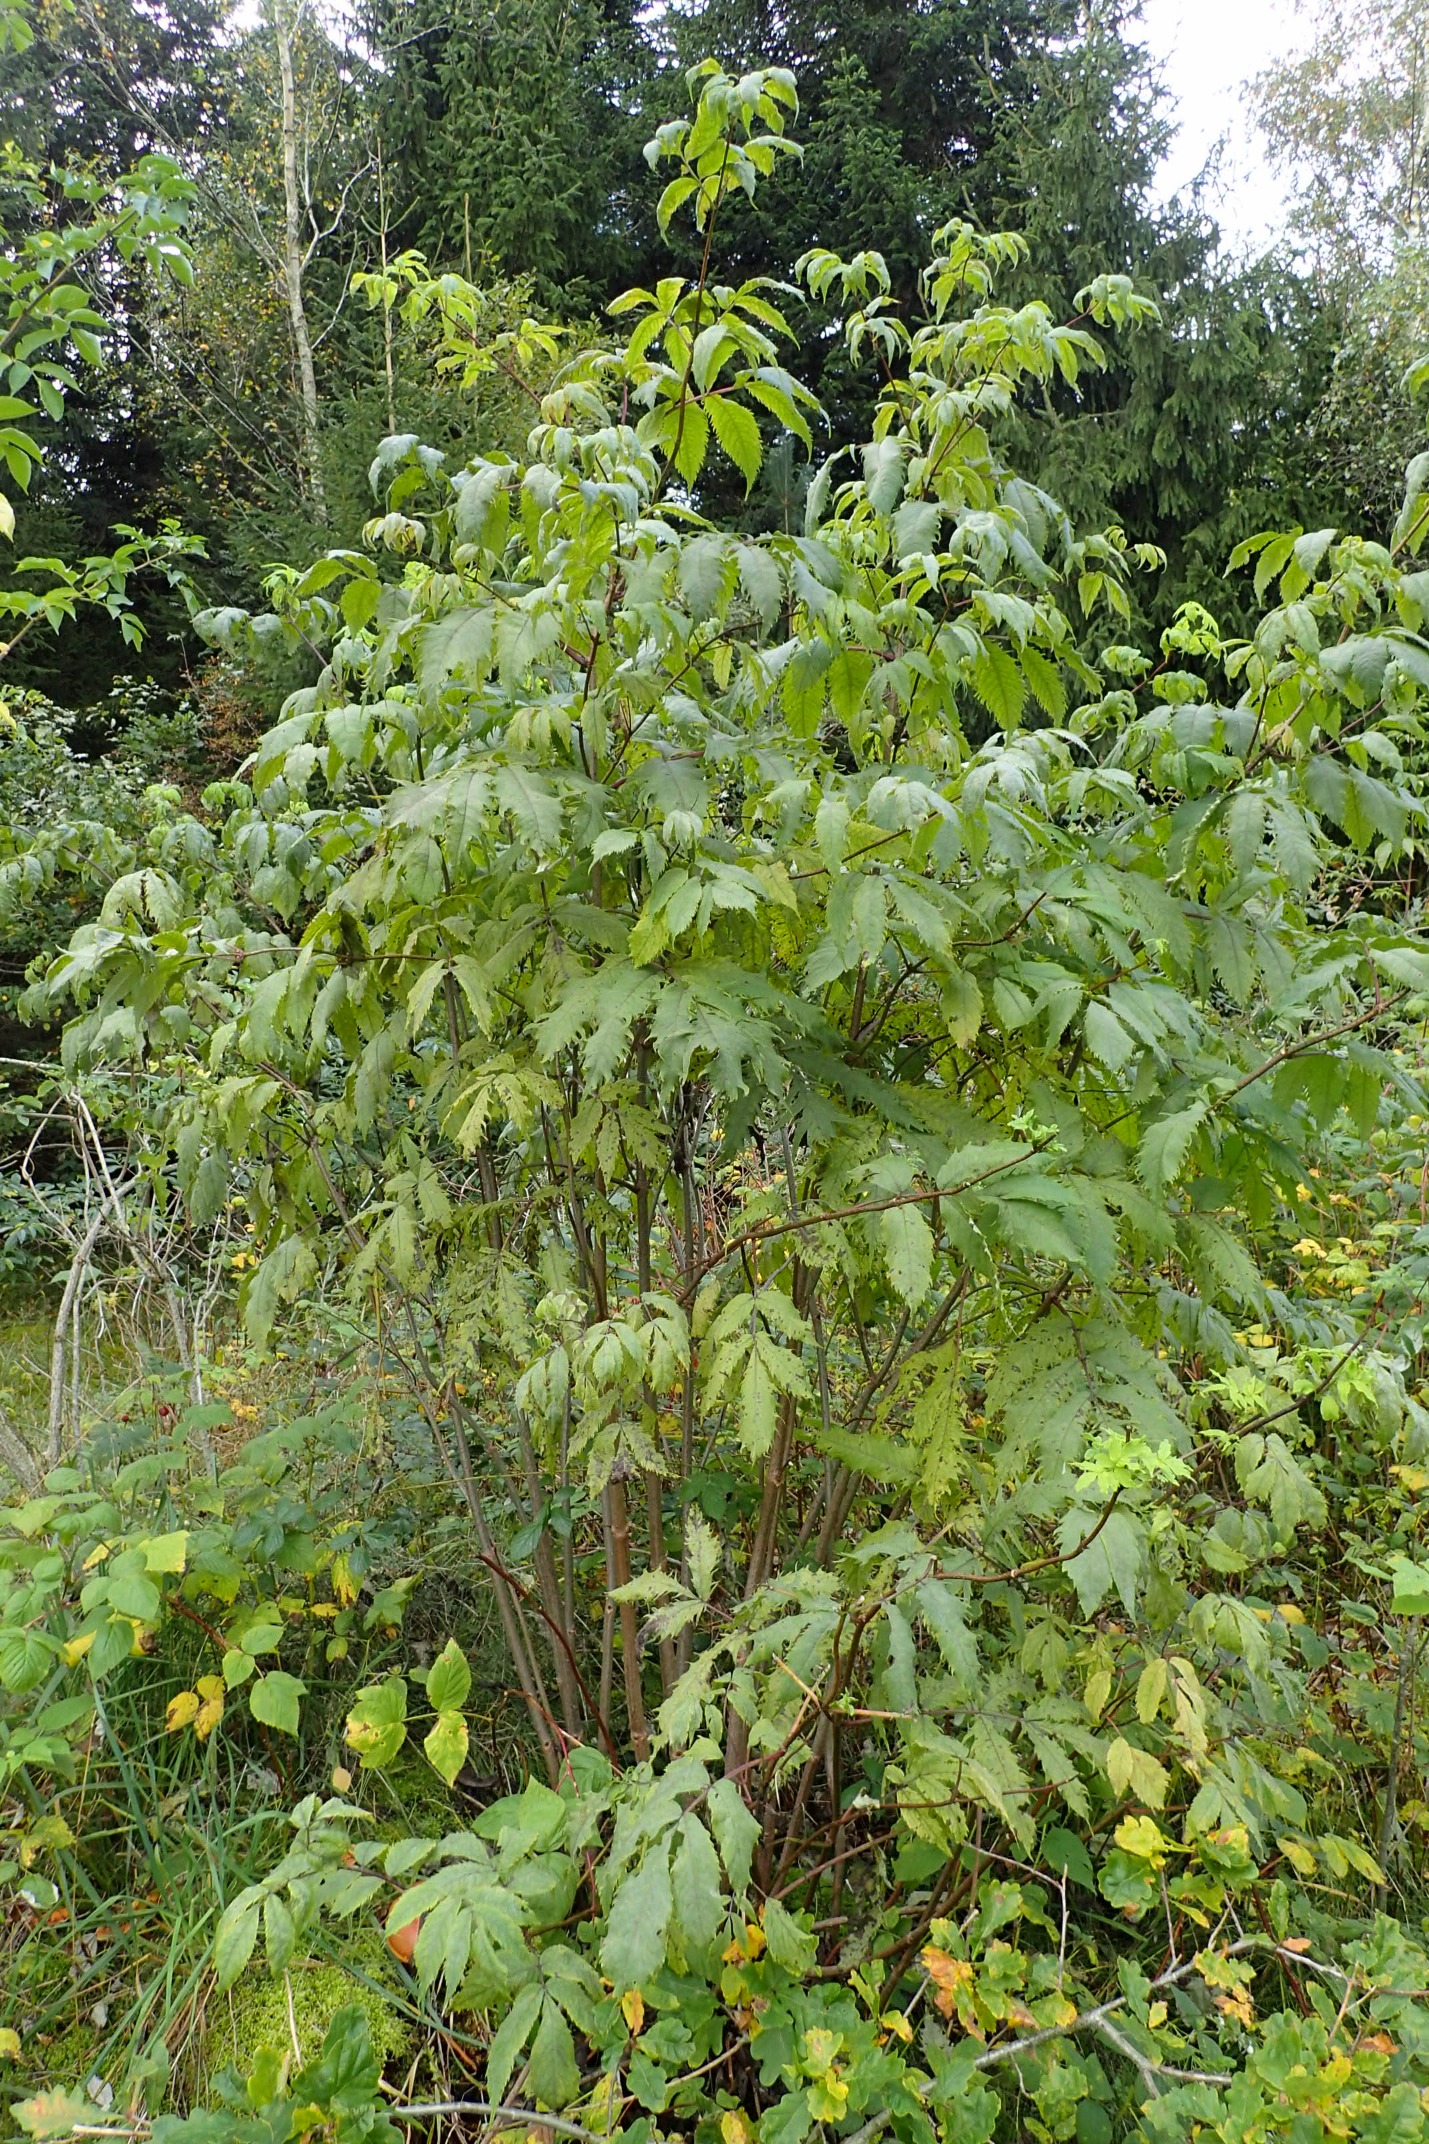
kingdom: Plantae
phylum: Tracheophyta
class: Magnoliopsida
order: Dipsacales
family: Viburnaceae
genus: Sambucus
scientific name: Sambucus racemosa
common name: Drue-hyld
